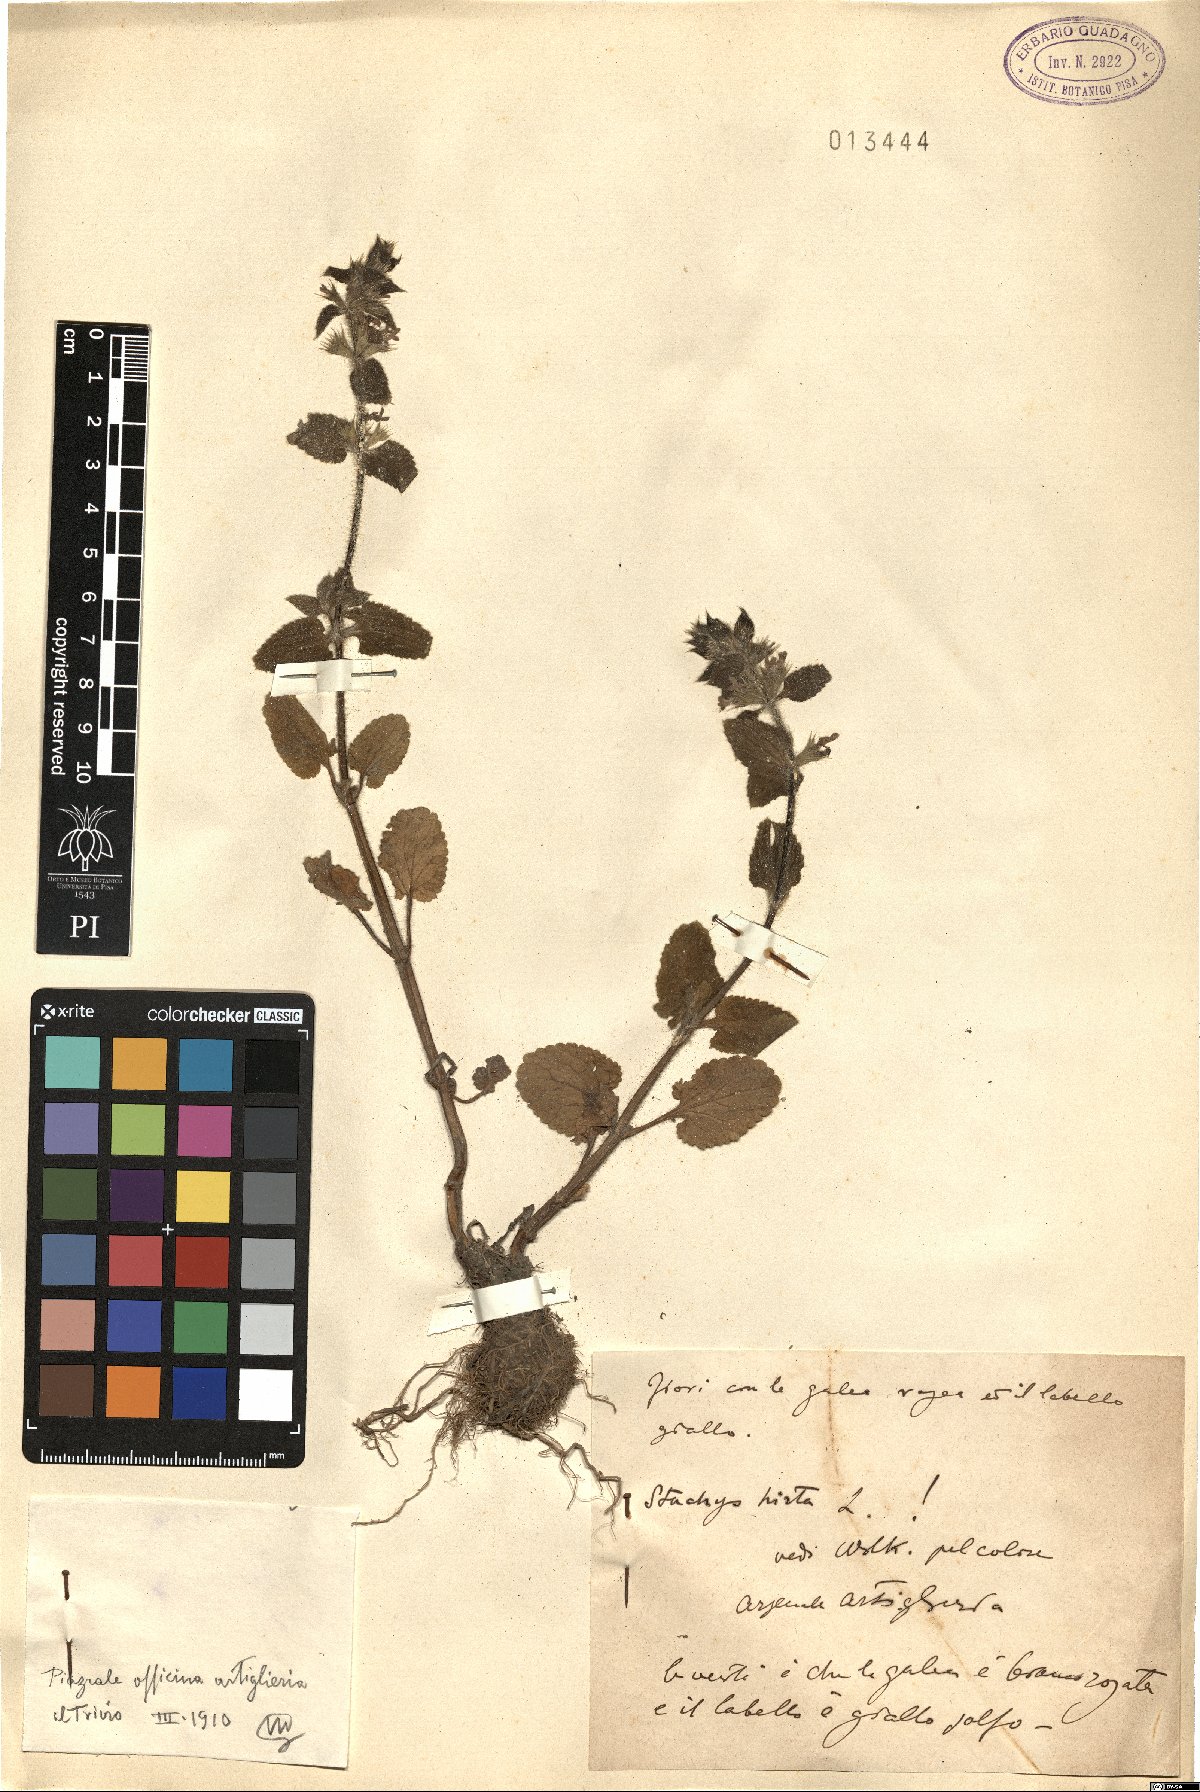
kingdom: Plantae
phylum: Tracheophyta
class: Magnoliopsida
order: Lamiales
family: Lamiaceae
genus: Stachys
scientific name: Stachys ocymastrum
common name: Italian hedgenettle
